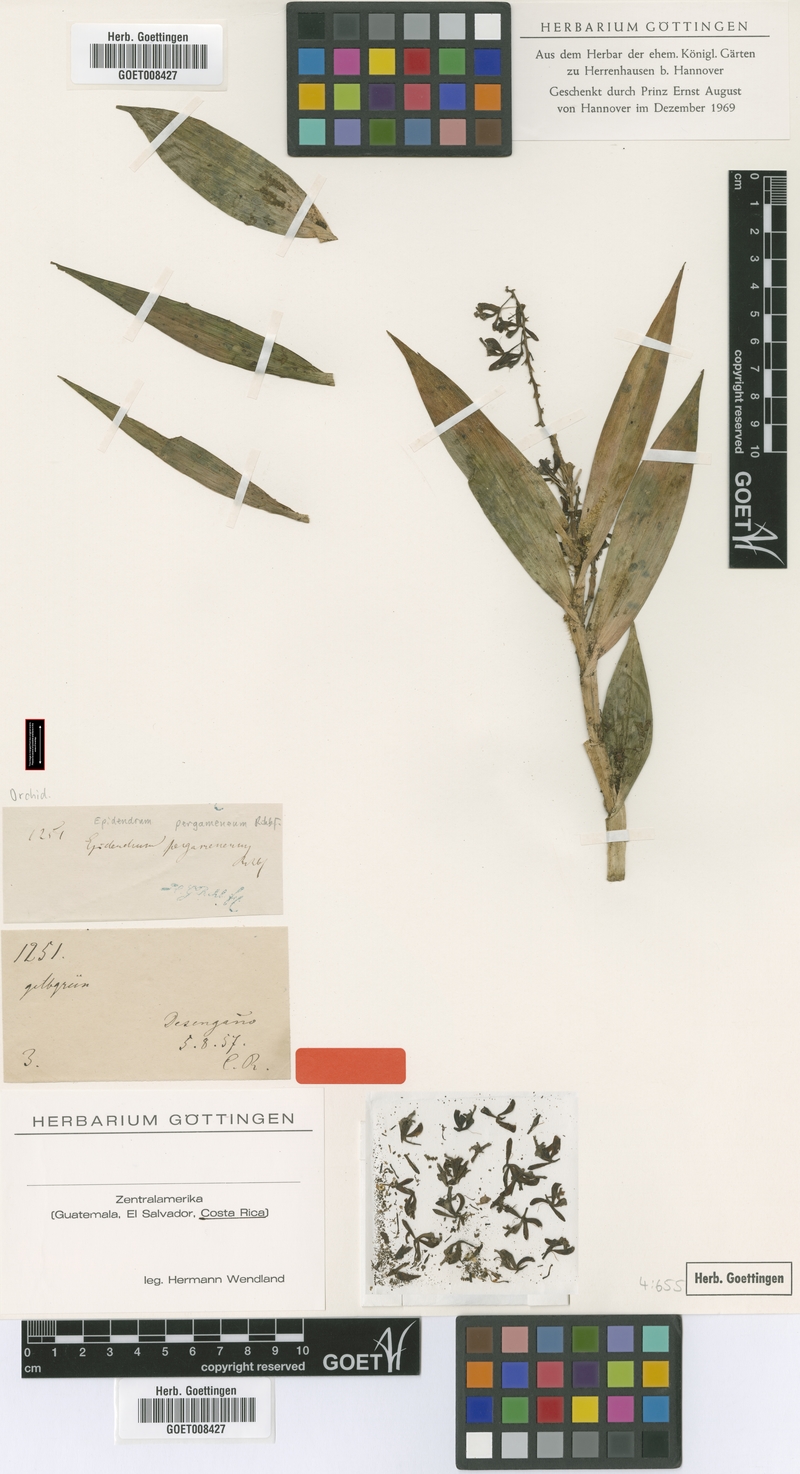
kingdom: Plantae
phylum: Tracheophyta
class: Liliopsida
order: Asparagales
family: Orchidaceae
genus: Epidendrum
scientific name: Epidendrum pergameneum
